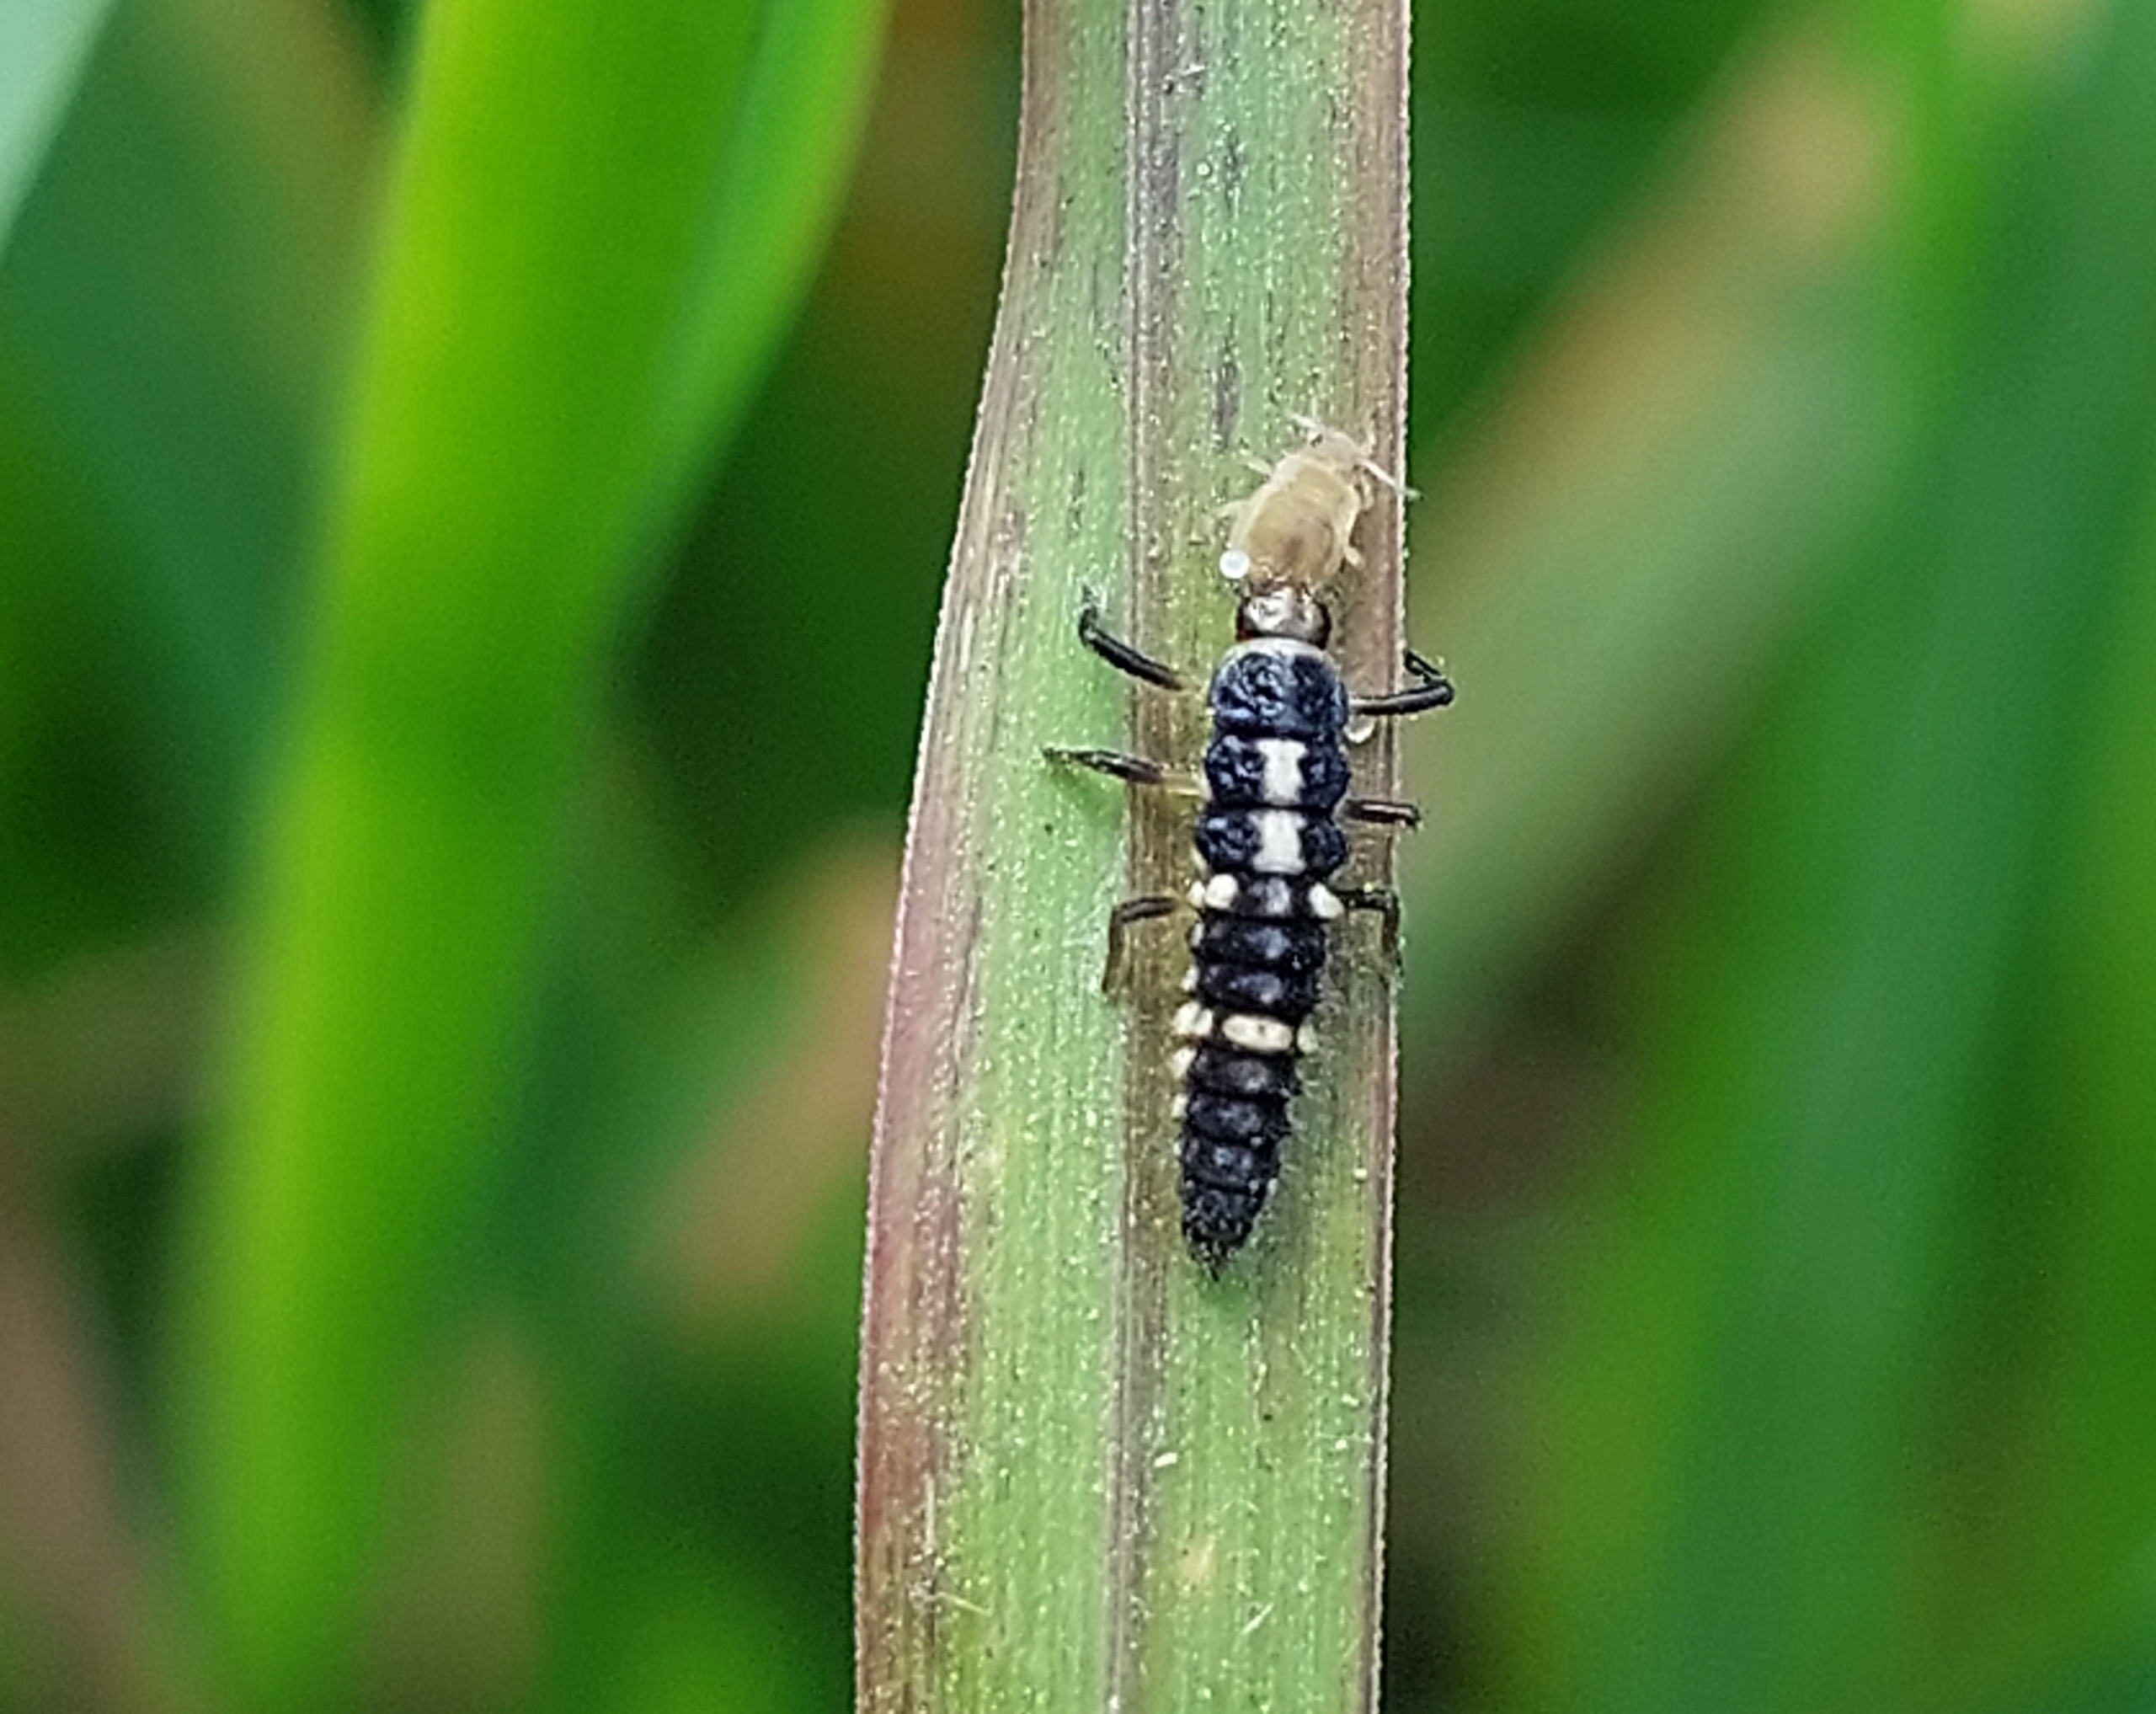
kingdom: Animalia
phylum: Arthropoda
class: Insecta
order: Coleoptera
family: Coccinellidae
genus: Propylaea
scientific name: Propylaea quatuordecimpunctata
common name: Skakbræt
